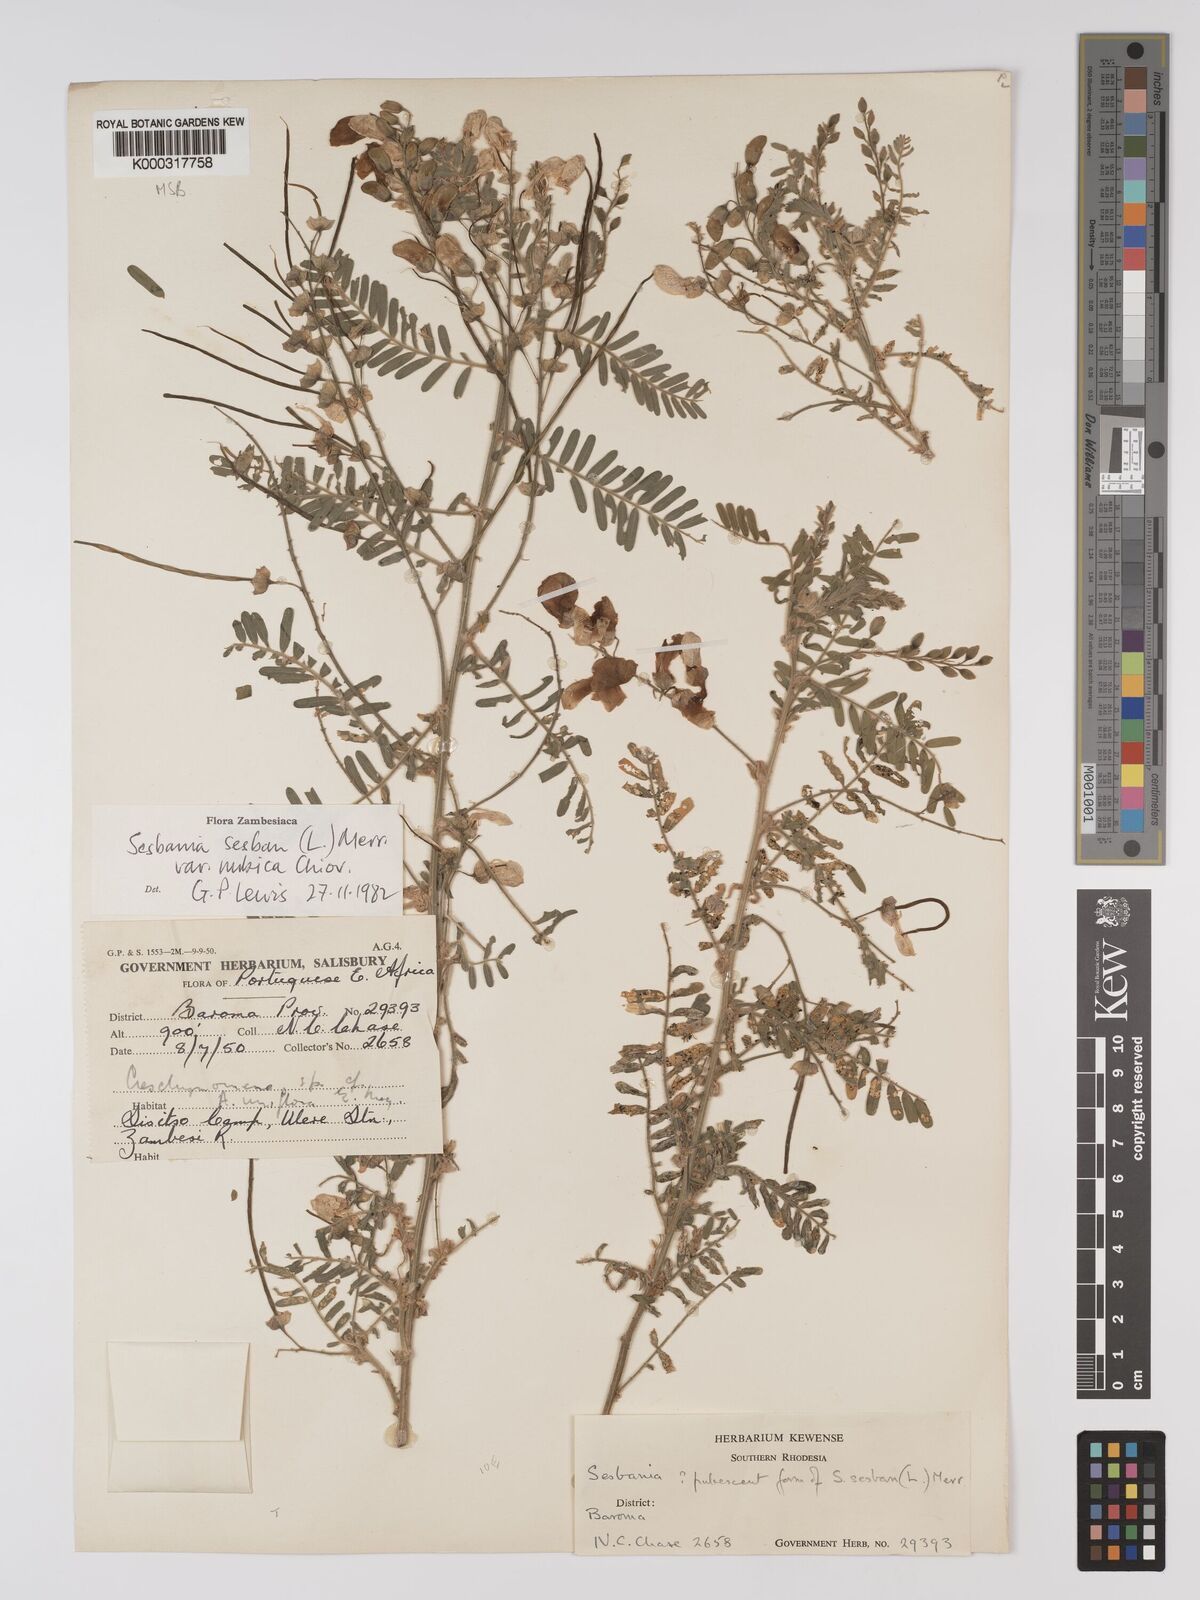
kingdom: Plantae
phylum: Tracheophyta
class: Magnoliopsida
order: Fabales
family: Fabaceae
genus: Sesbania
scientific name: Sesbania sesban
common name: Egyptian sesban
